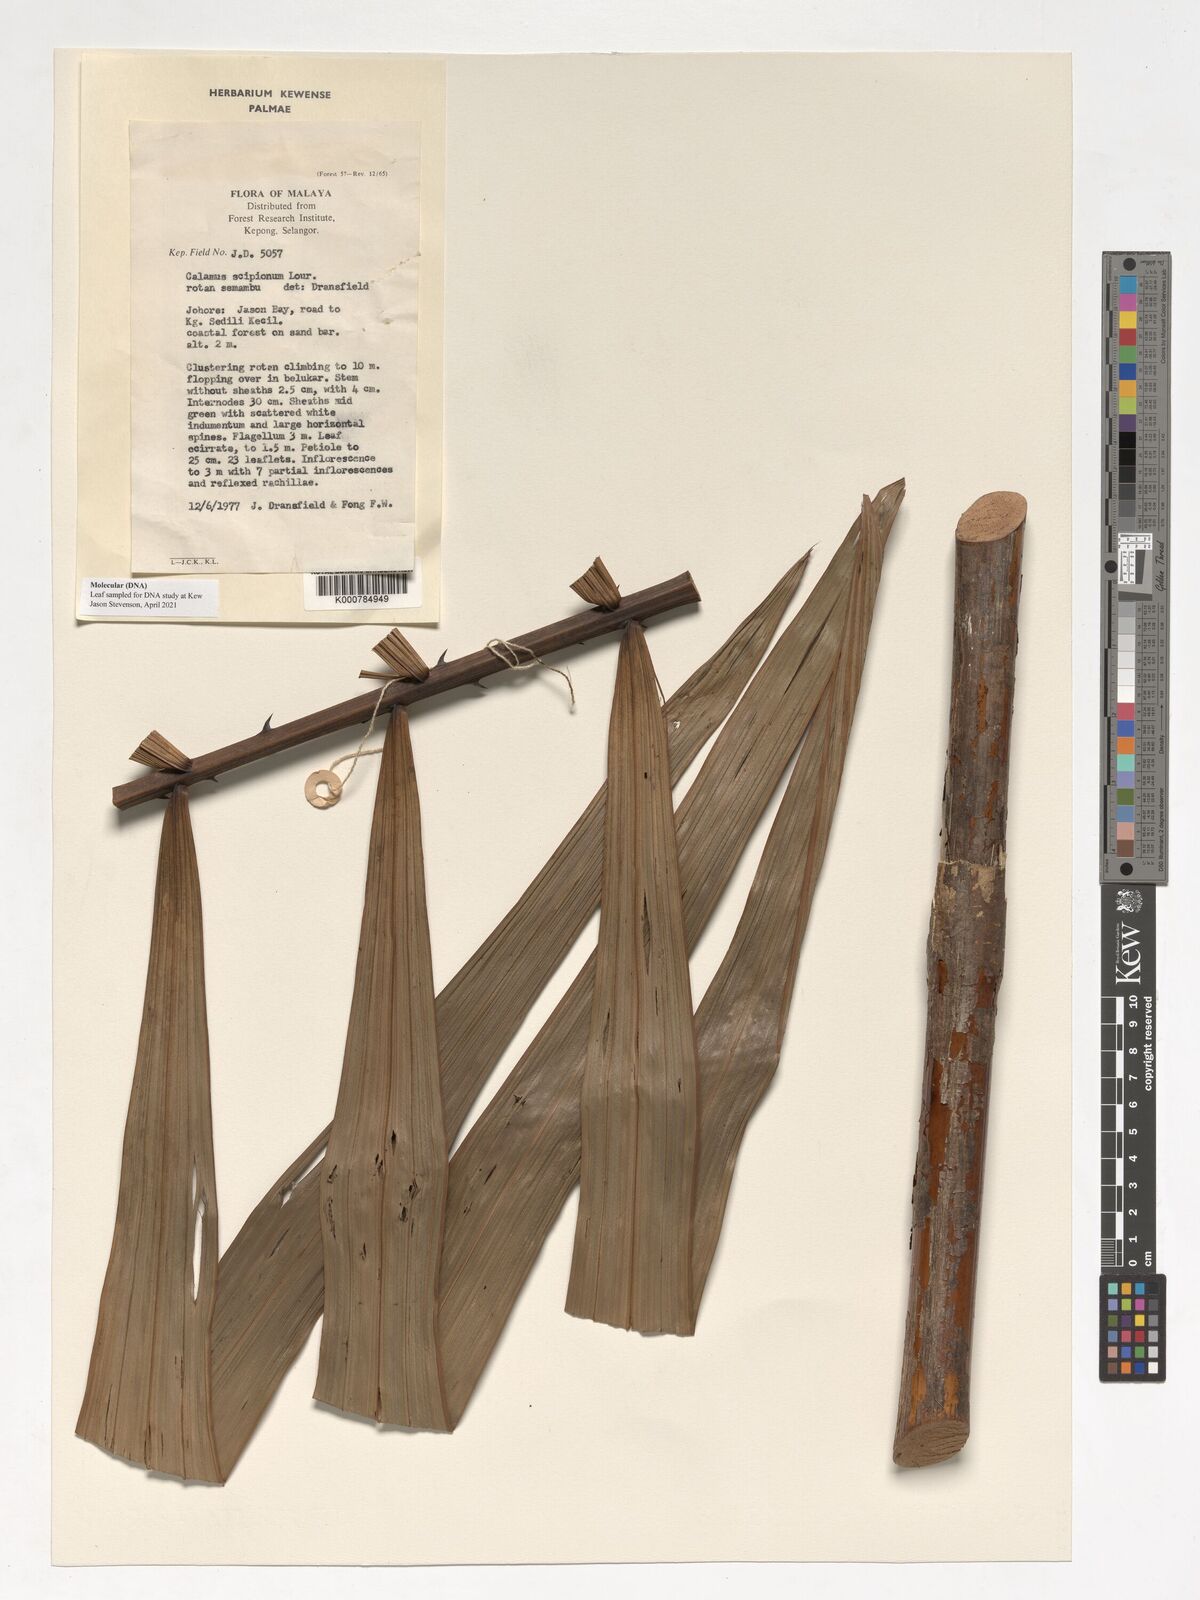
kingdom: Plantae
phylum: Tracheophyta
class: Liliopsida
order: Arecales
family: Arecaceae
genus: Calamus
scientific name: Calamus scipionum
